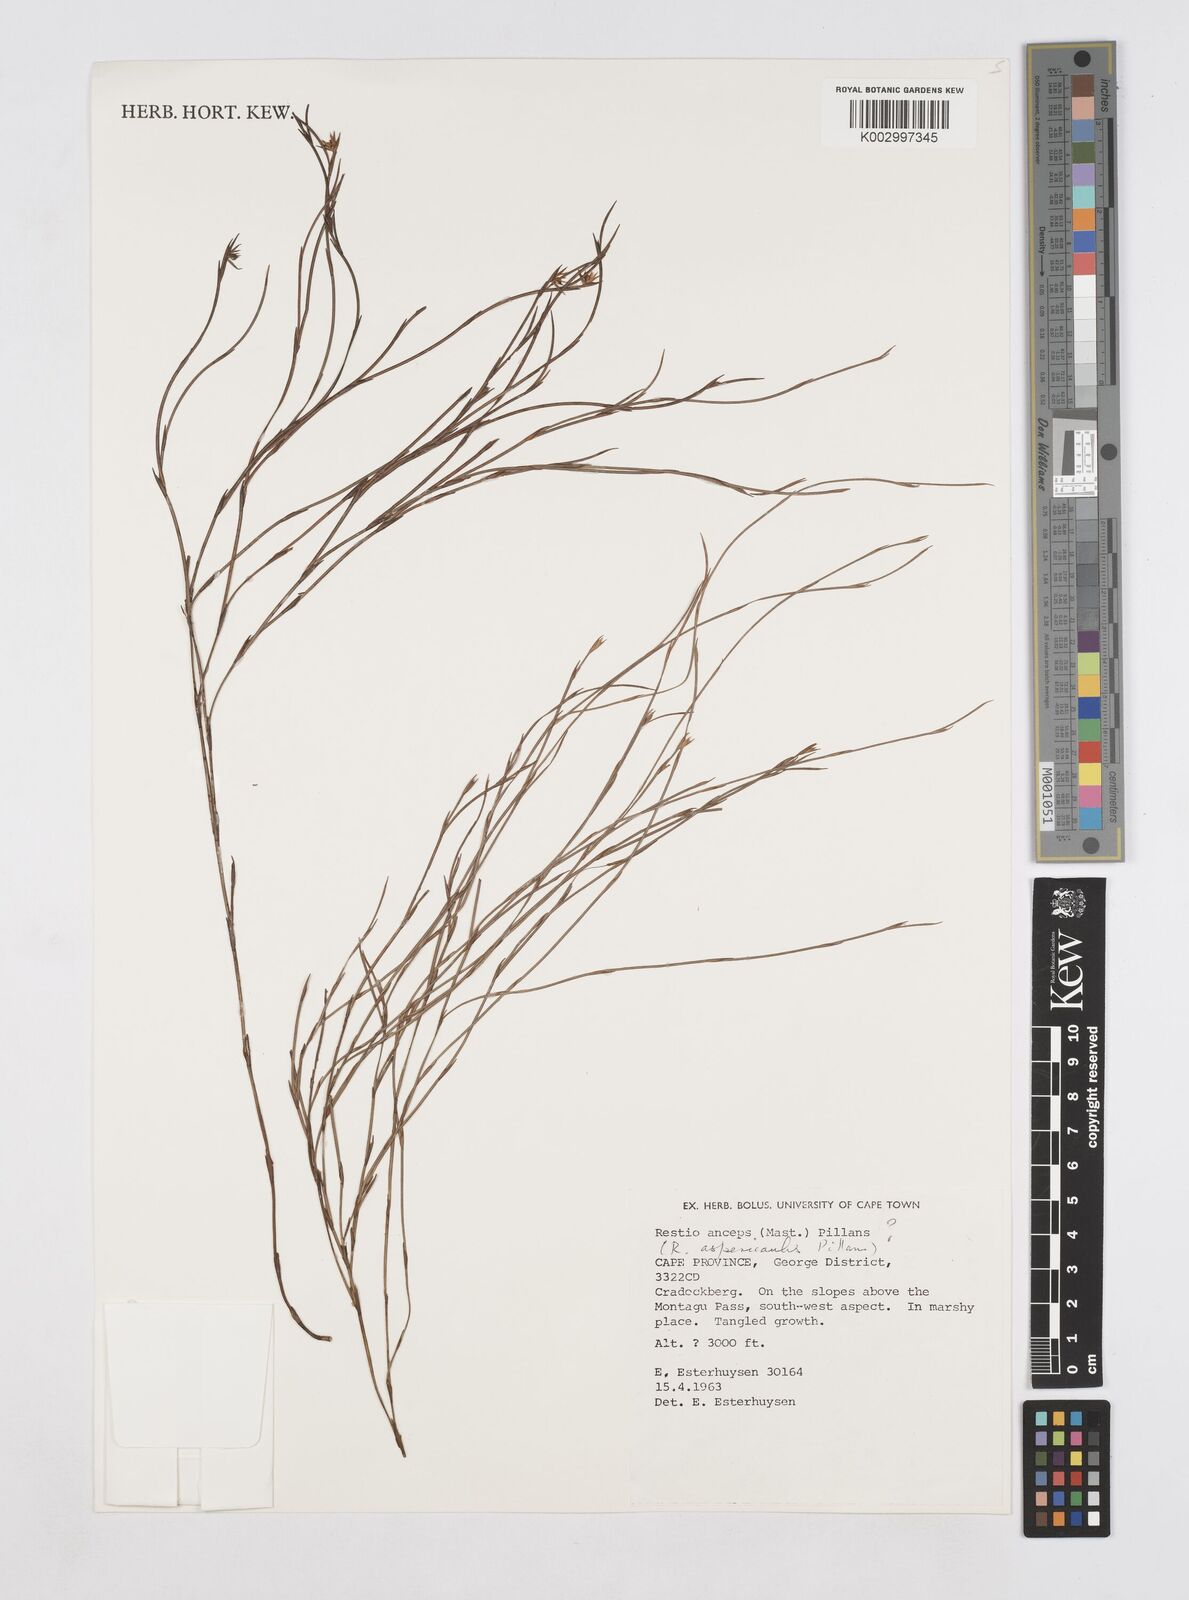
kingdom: Plantae
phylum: Tracheophyta
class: Liliopsida
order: Poales
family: Restionaceae
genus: Platycaulos
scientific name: Platycaulos
